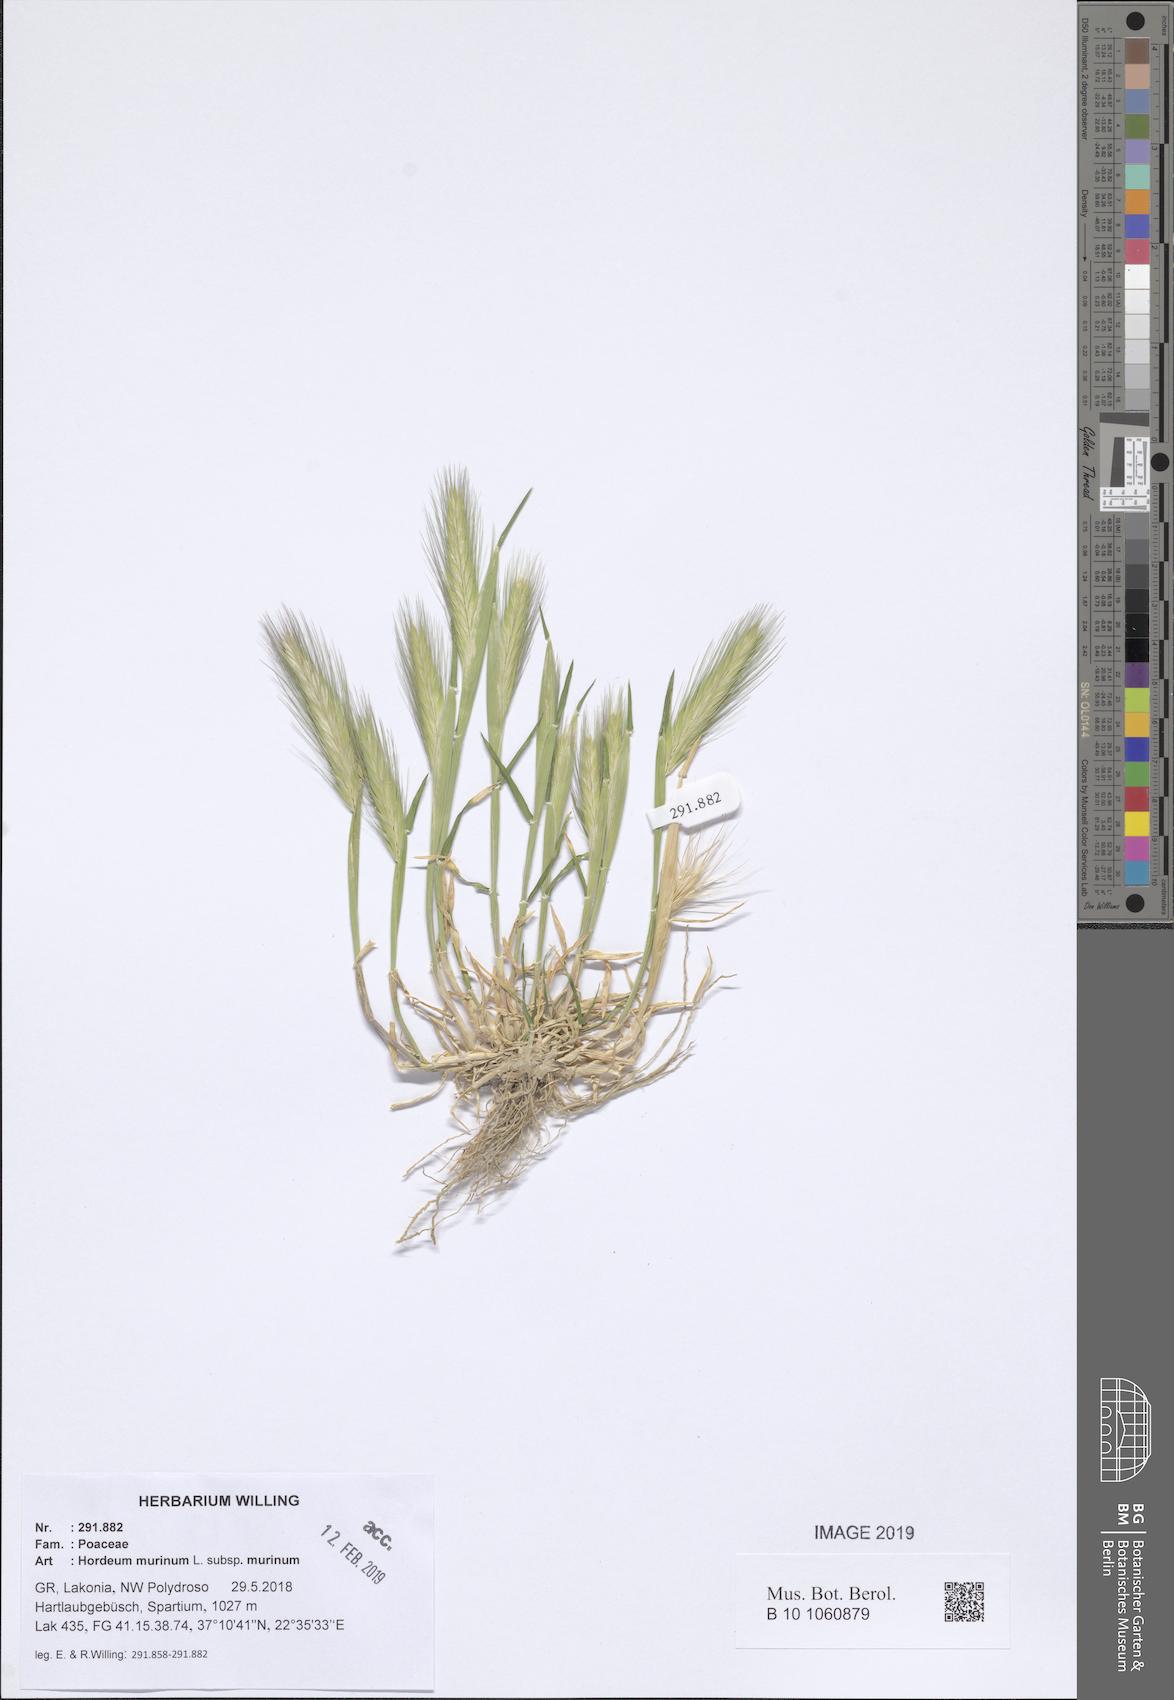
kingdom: Plantae
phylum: Tracheophyta
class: Liliopsida
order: Poales
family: Poaceae
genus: Hordeum
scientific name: Hordeum murinum
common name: Wall barley
